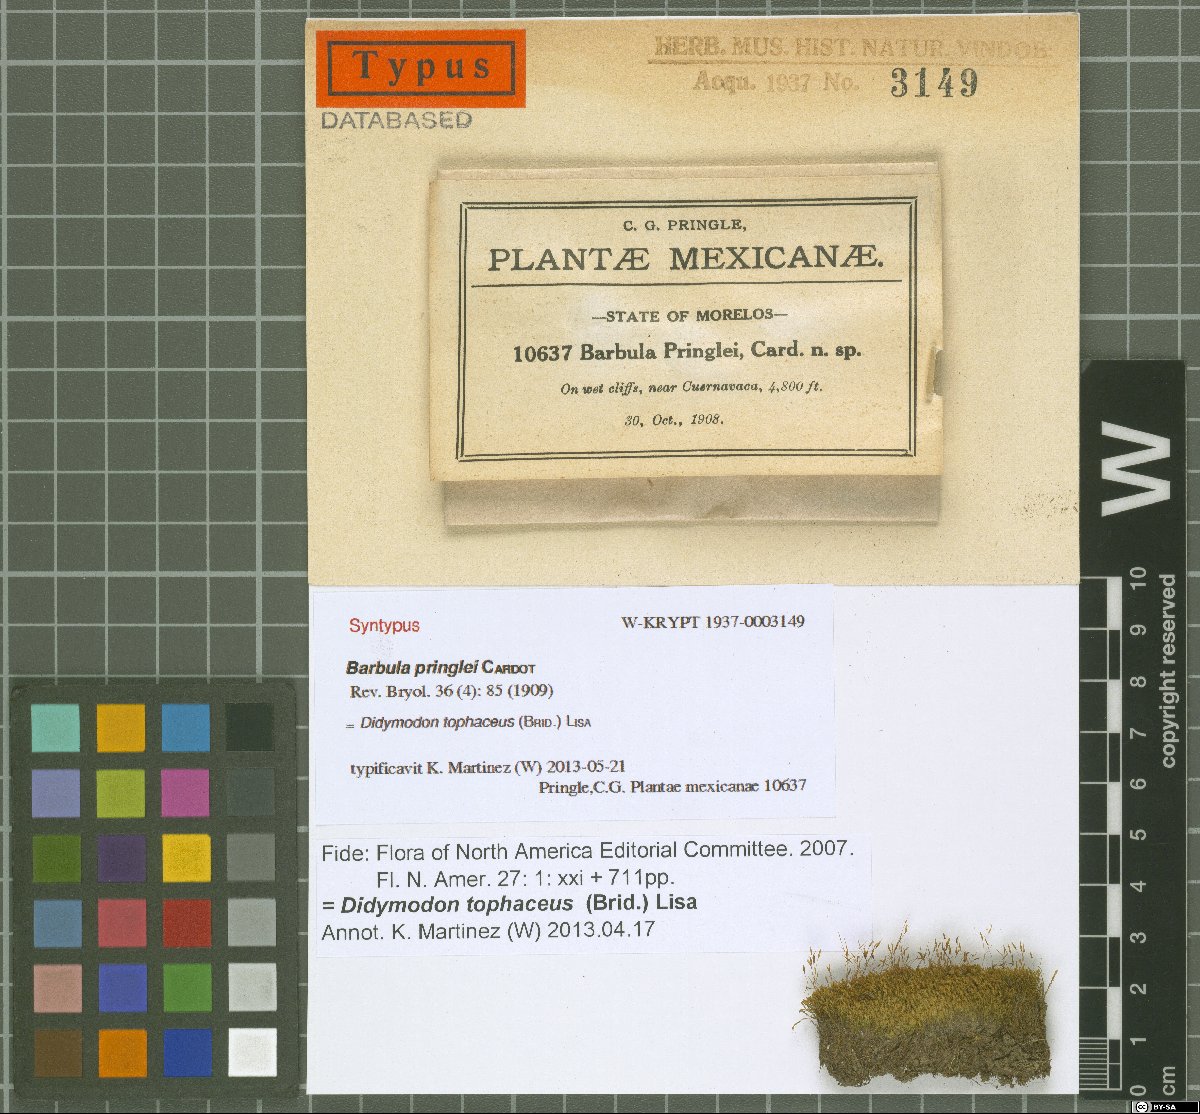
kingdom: Plantae
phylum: Bryophyta
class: Bryopsida
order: Pottiales
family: Pottiaceae
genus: Hydrogonium
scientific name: Hydrogonium orientale
